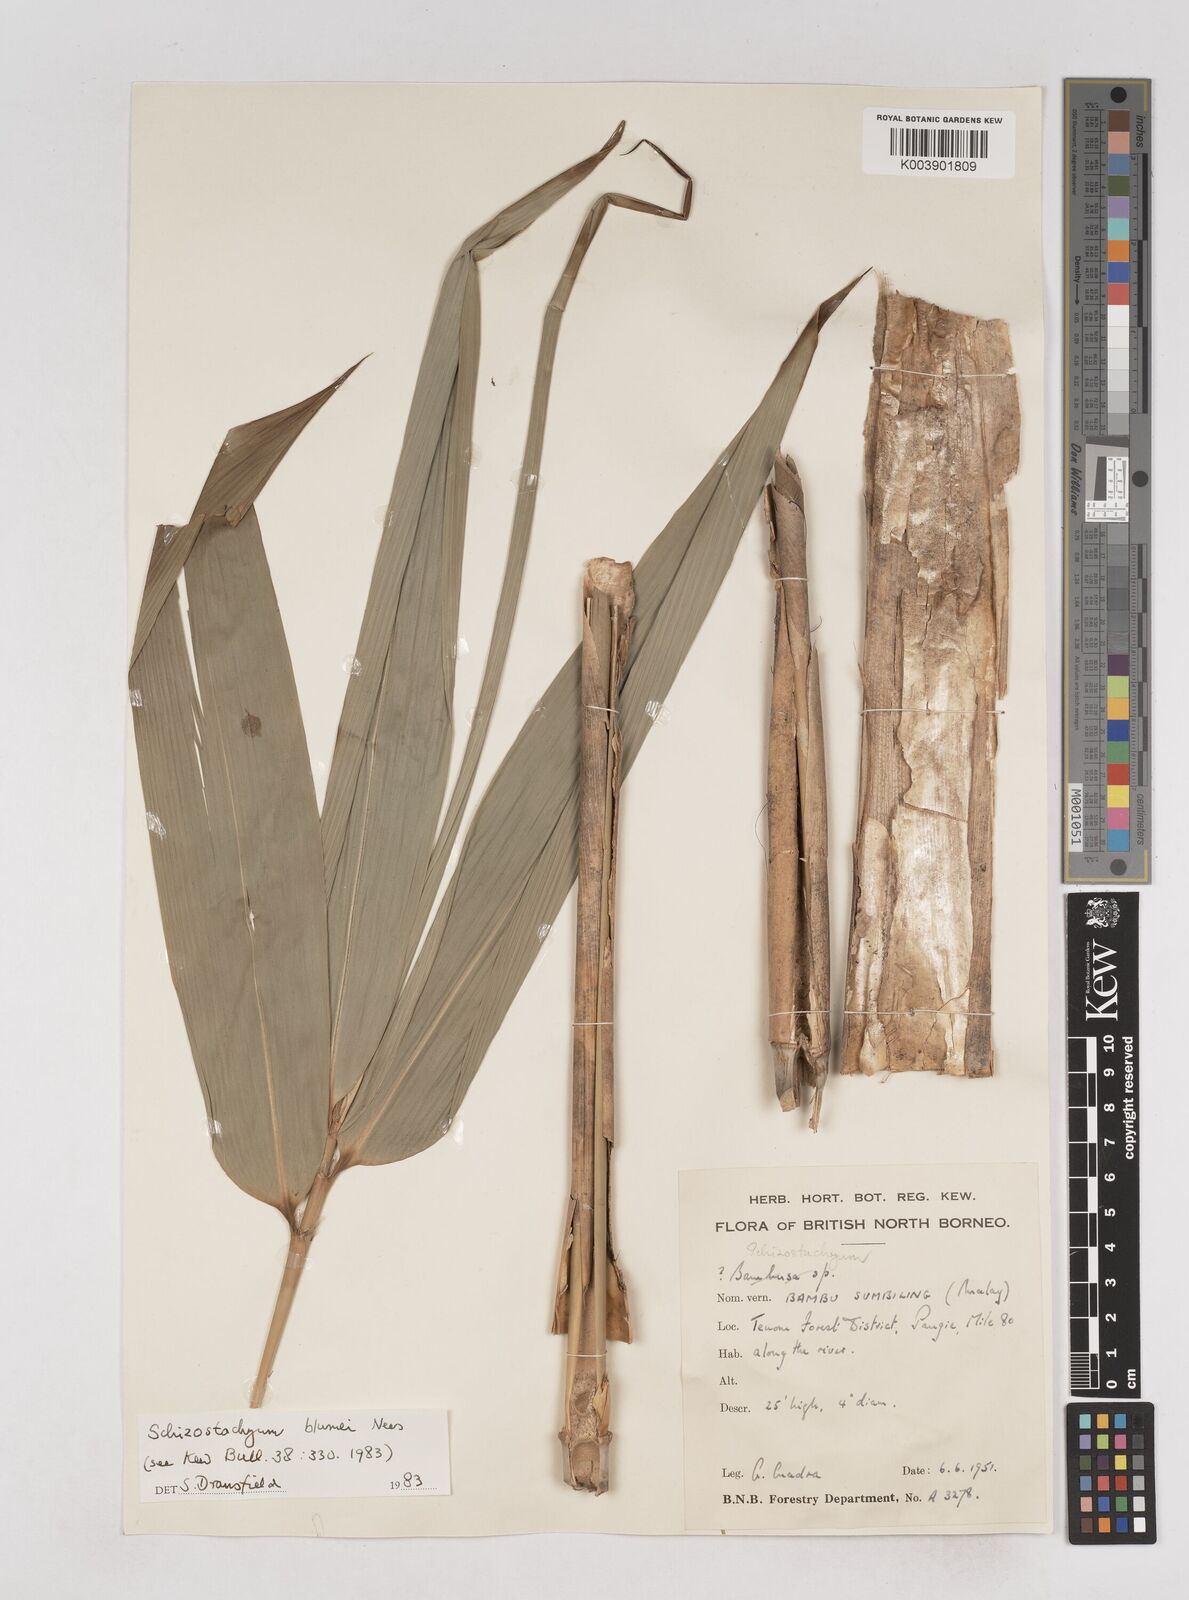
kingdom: Plantae
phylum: Tracheophyta
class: Liliopsida
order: Poales
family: Poaceae
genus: Schizostachyum
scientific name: Schizostachyum blumei
